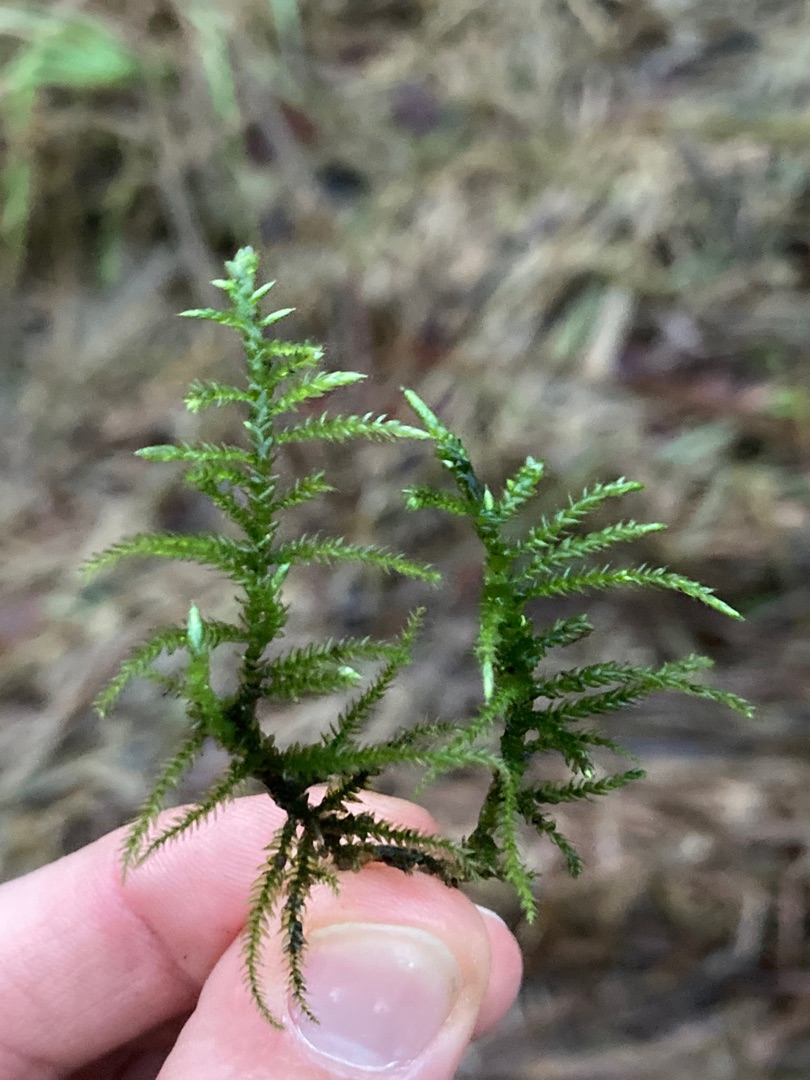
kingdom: Plantae
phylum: Bryophyta
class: Bryopsida
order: Hypnales
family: Brachytheciaceae
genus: Cirriphyllum
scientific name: Cirriphyllum piliferum
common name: Almindelig penselmos
